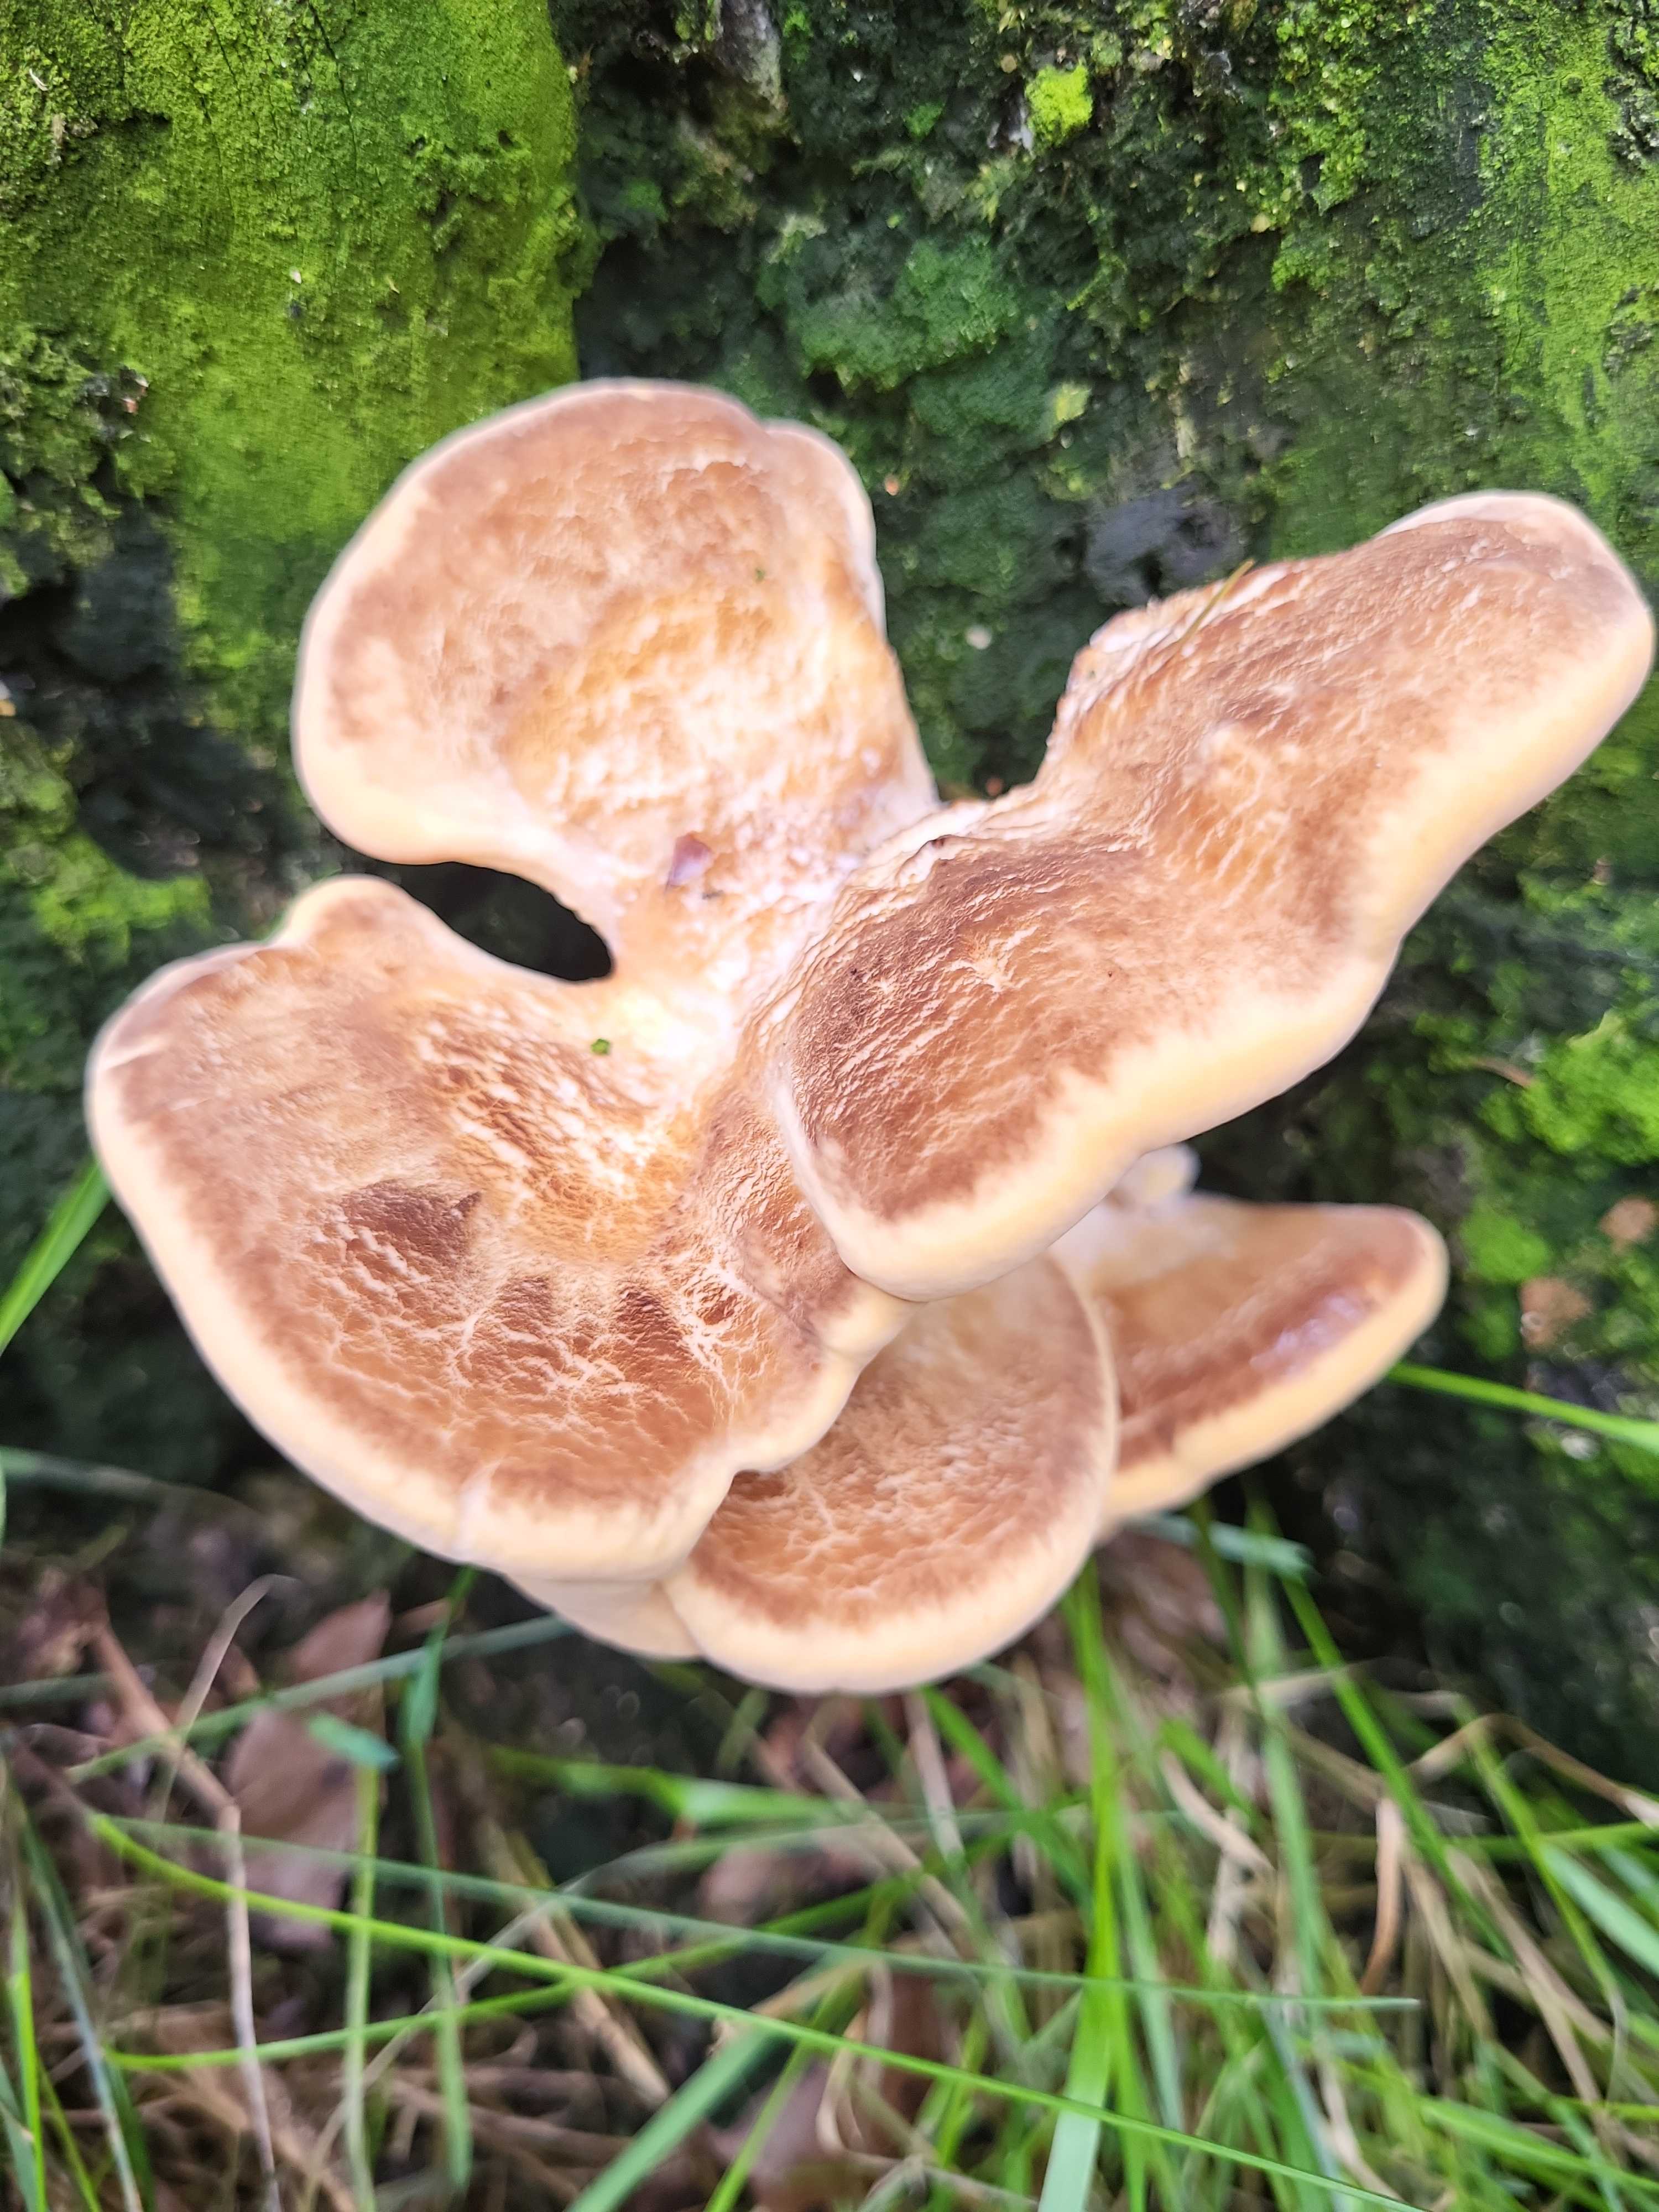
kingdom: Fungi
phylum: Basidiomycota
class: Agaricomycetes
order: Polyporales
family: Meripilaceae
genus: Meripilus
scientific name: Meripilus giganteus
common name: kæmpeporesvamp
